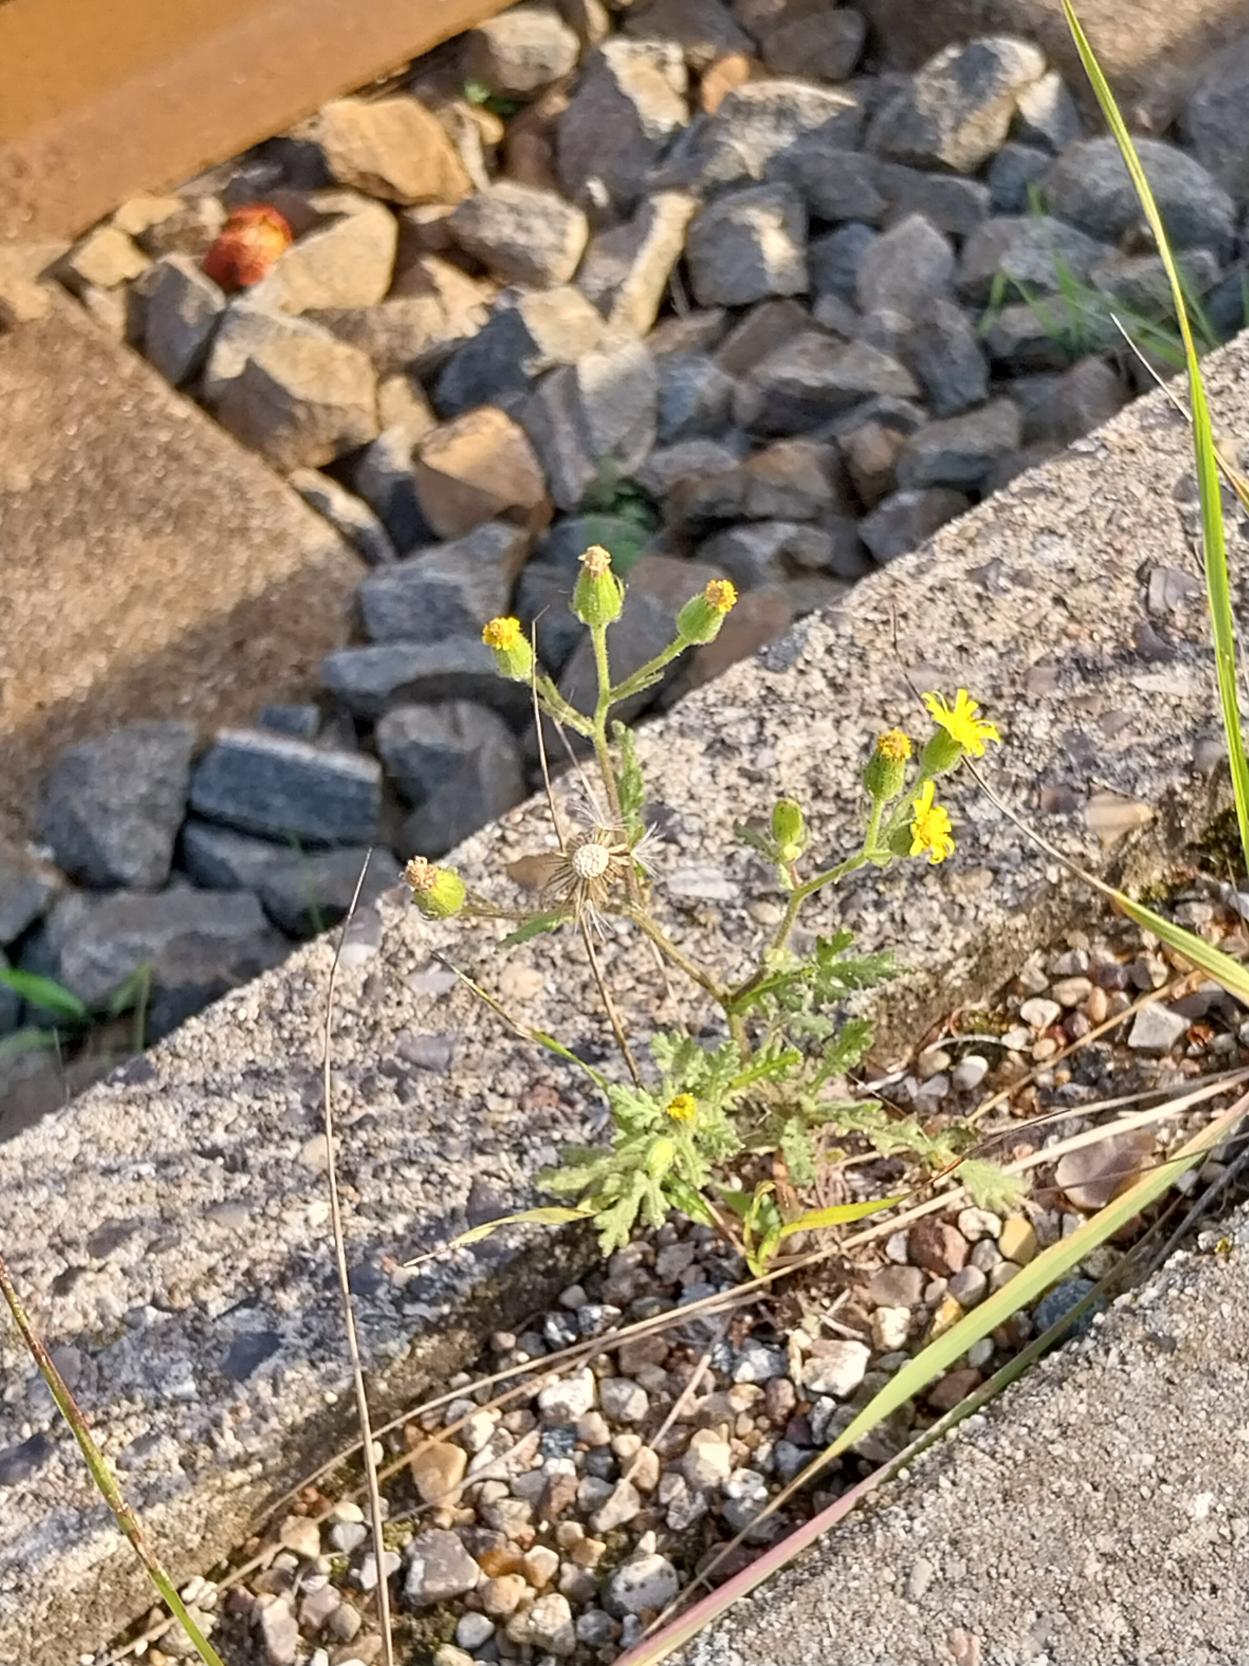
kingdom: Plantae
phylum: Tracheophyta
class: Magnoliopsida
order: Asterales
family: Asteraceae
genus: Senecio
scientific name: Senecio viscosus
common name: Klæbrig brandbæger
